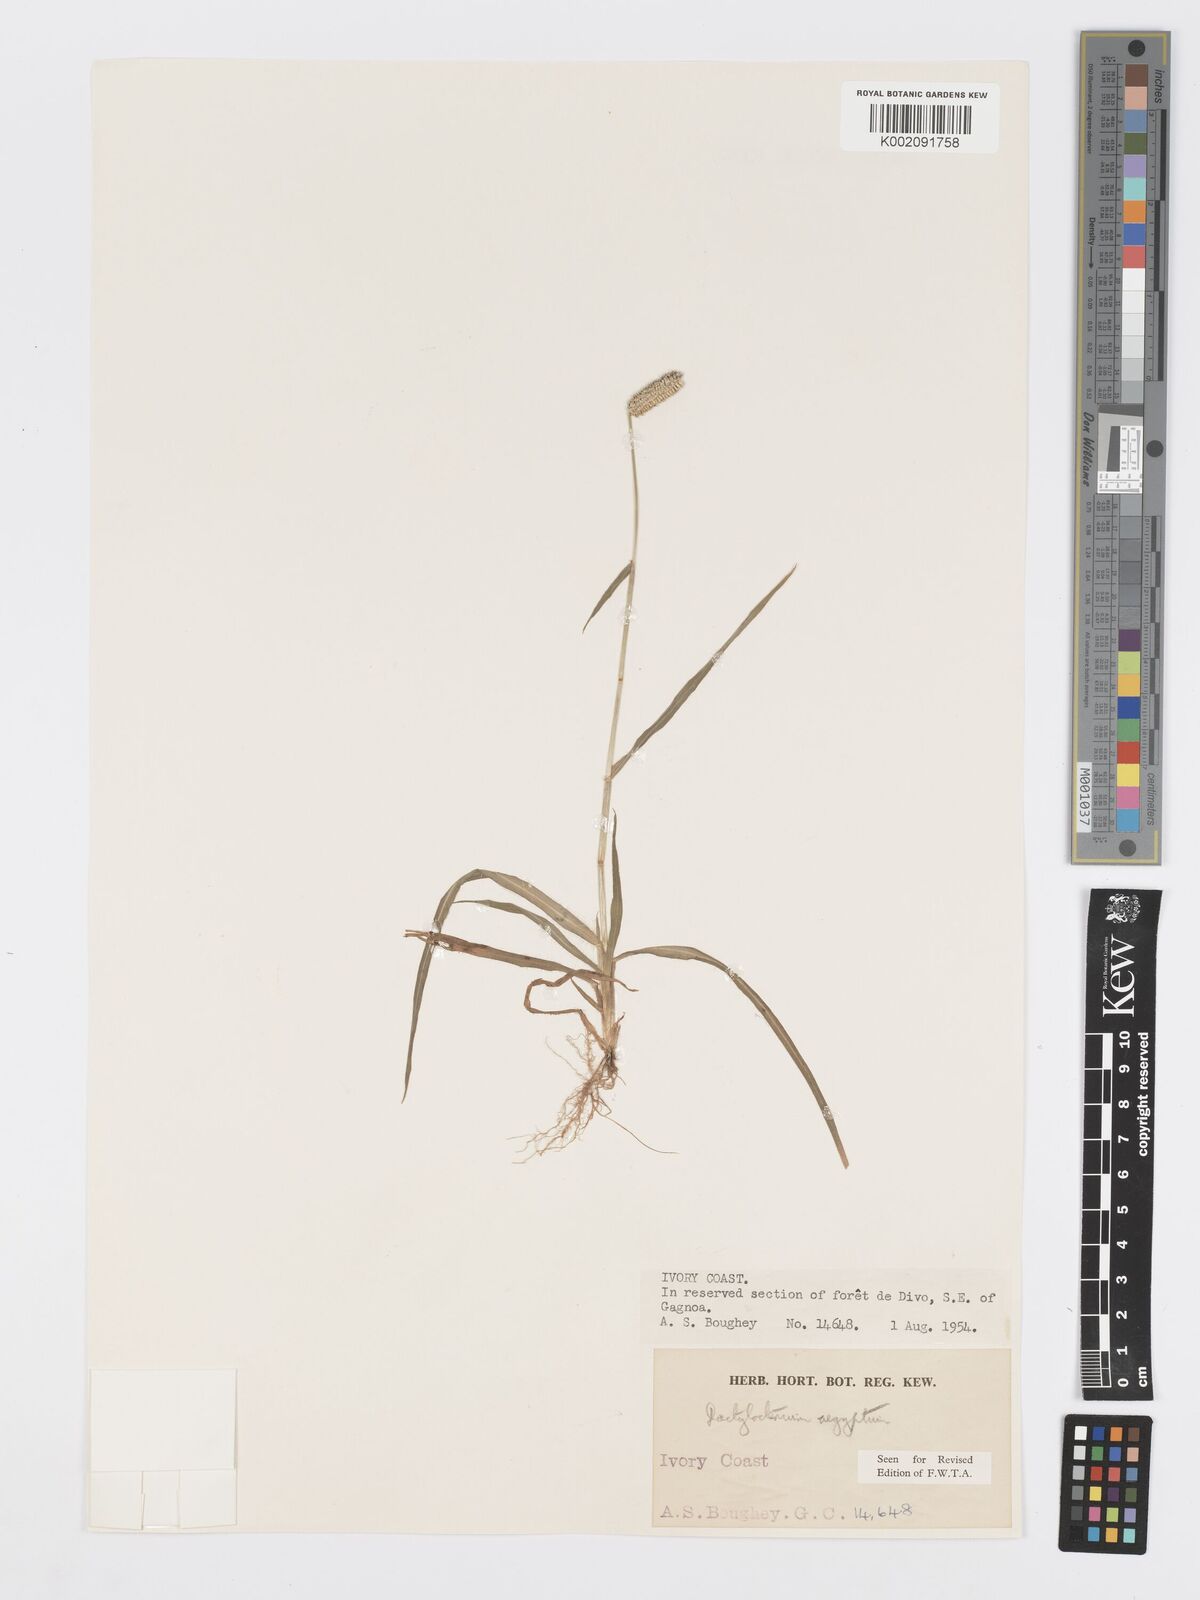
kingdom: Plantae
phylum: Tracheophyta
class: Liliopsida
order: Poales
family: Poaceae
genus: Dactyloctenium
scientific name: Dactyloctenium aegyptium
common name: Egyptian grass
